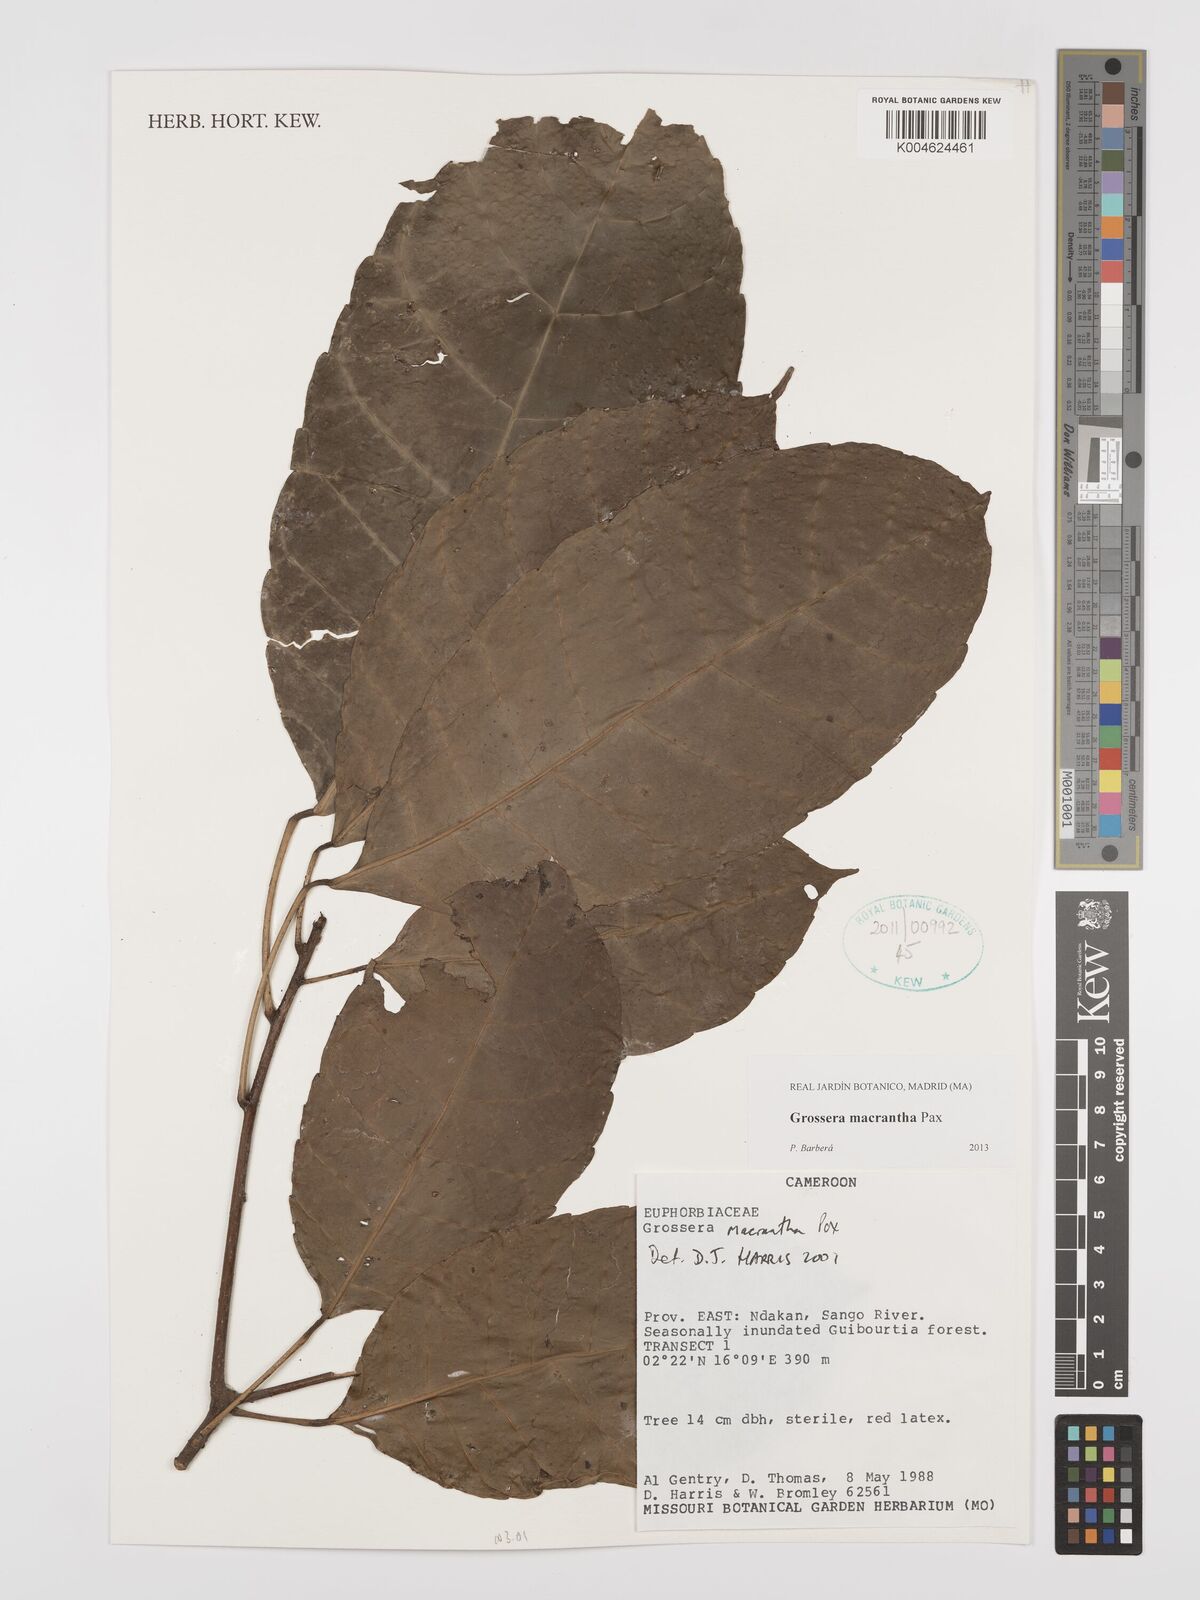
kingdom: Plantae
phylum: Tracheophyta
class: Magnoliopsida
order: Malpighiales
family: Euphorbiaceae
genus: Grossera
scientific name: Grossera macrantha
